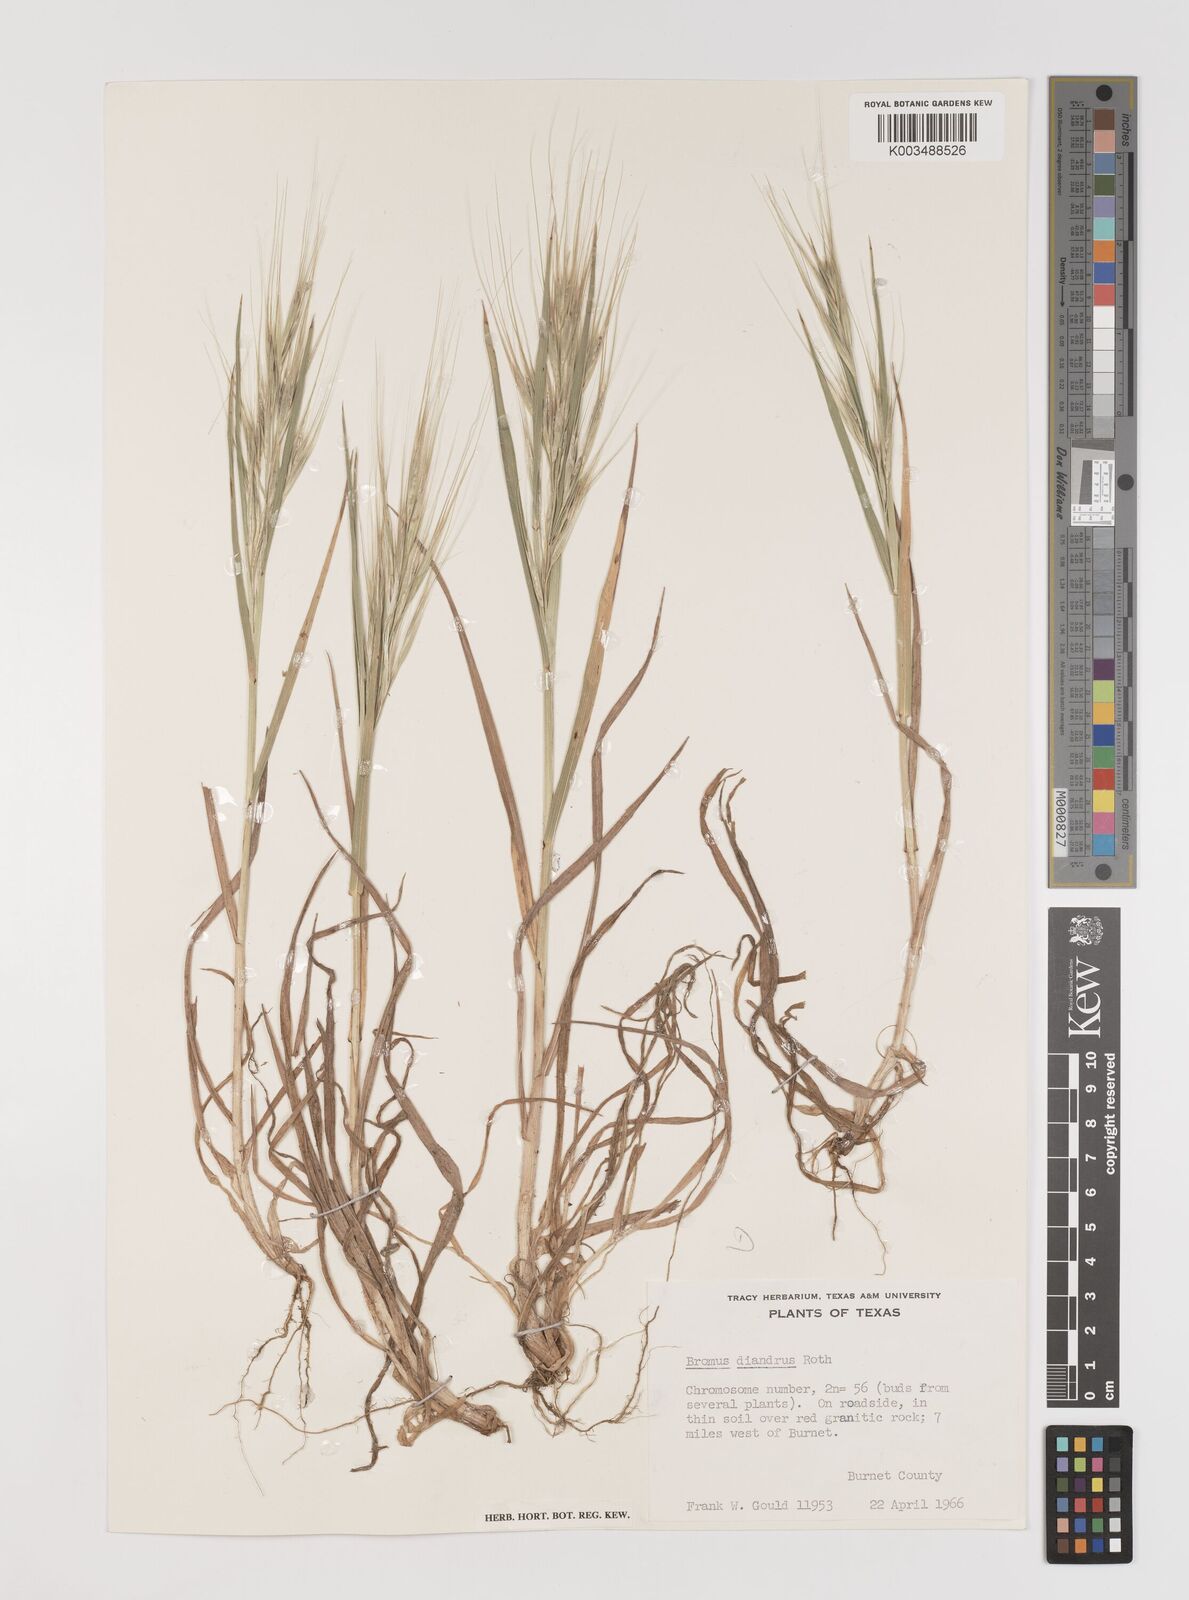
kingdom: Plantae
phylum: Tracheophyta
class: Liliopsida
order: Poales
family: Poaceae
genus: Bromus
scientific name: Bromus diandrus
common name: Ripgut brome
